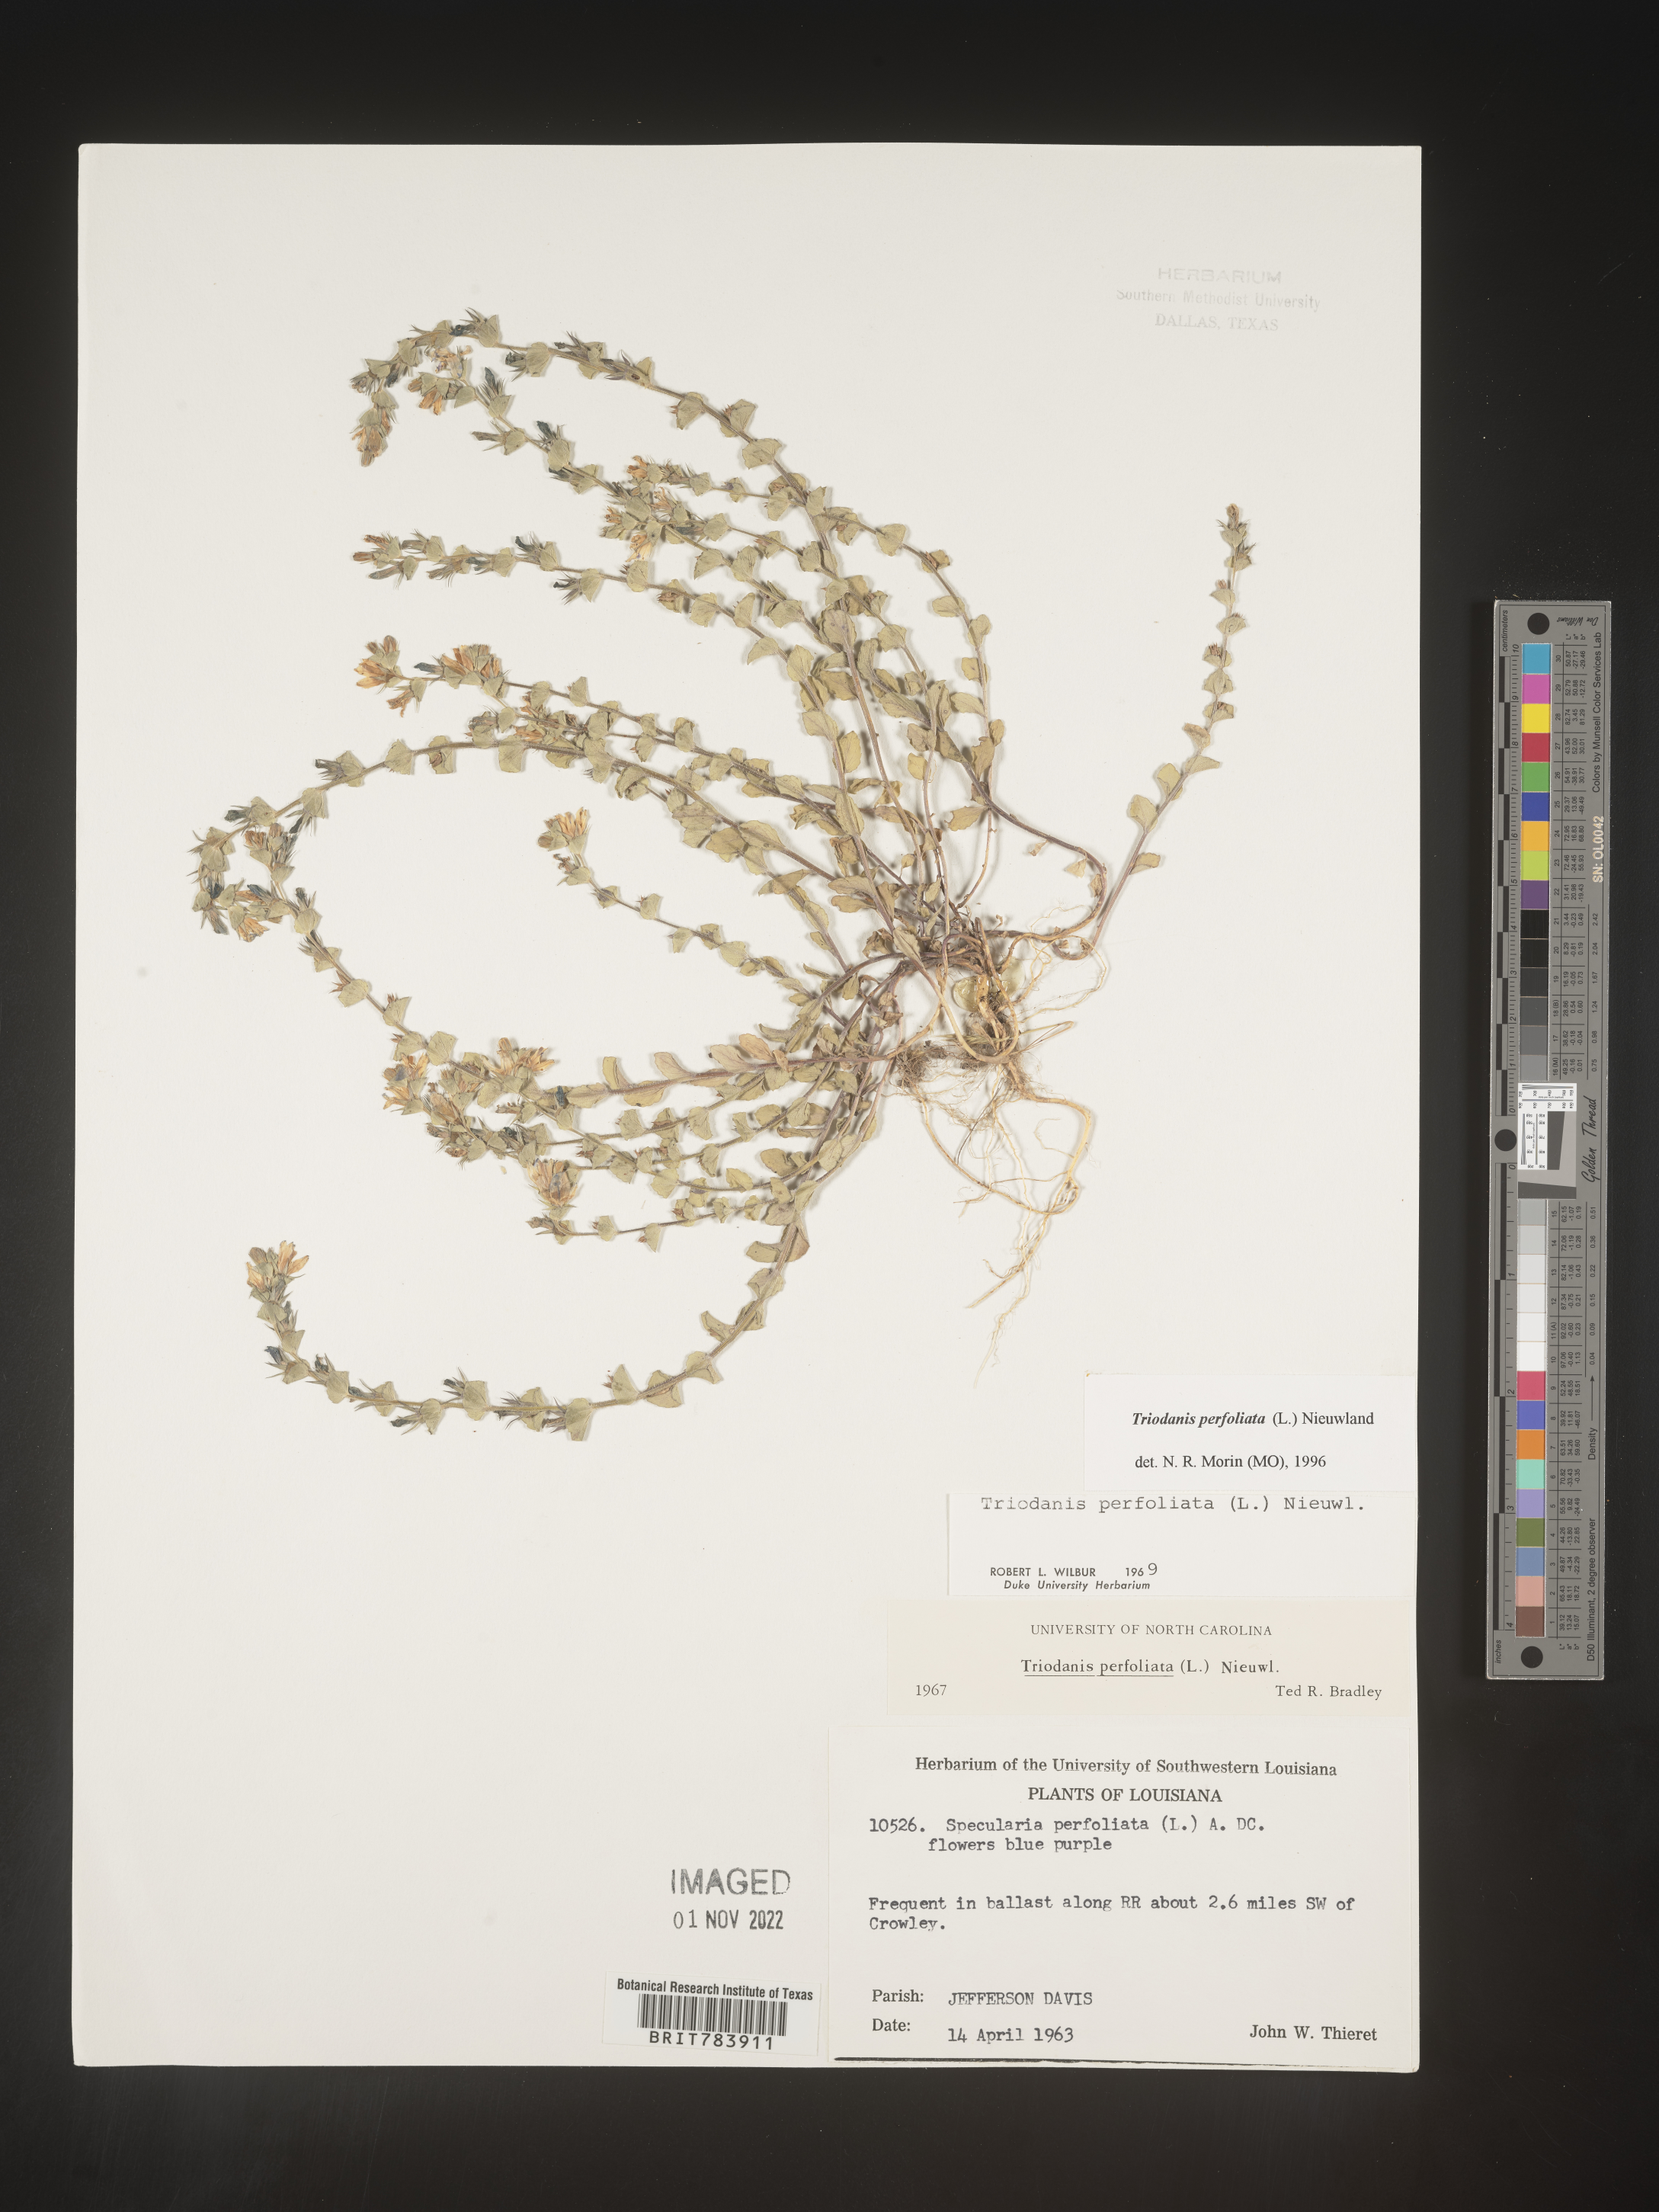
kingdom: Plantae
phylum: Tracheophyta
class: Magnoliopsida
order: Asterales
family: Campanulaceae
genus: Triodanis
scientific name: Triodanis perfoliata
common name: Clasping venus' looking-glass
